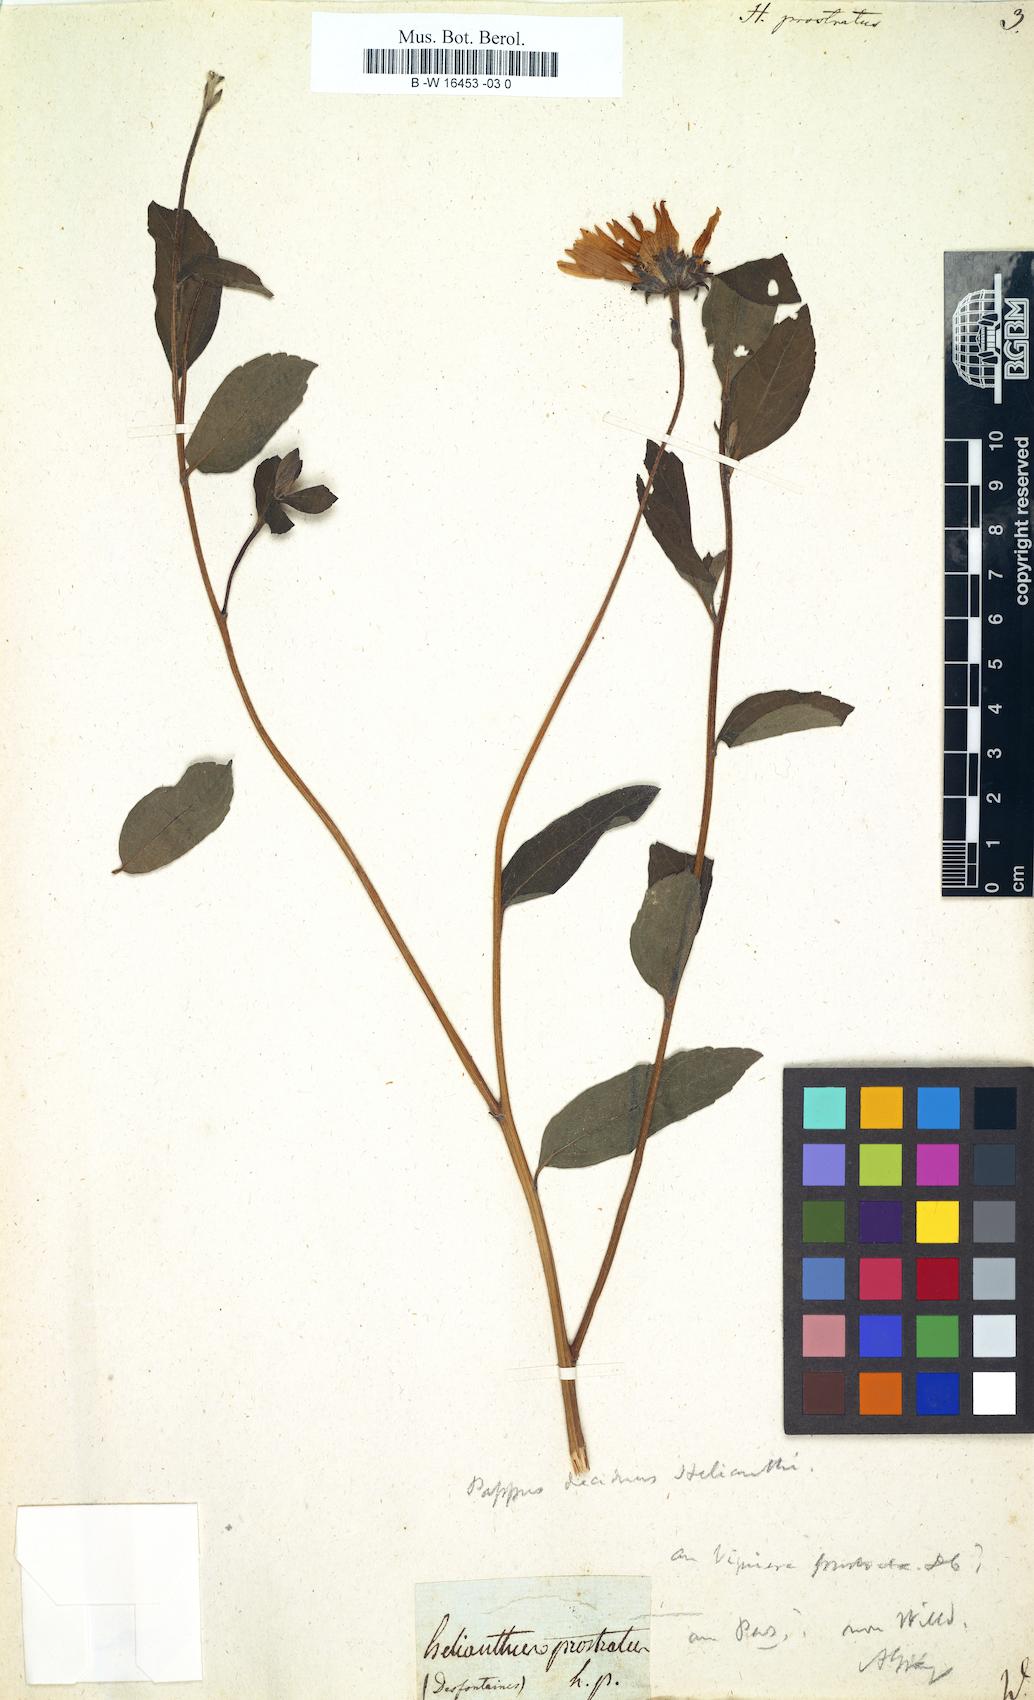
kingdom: Plantae
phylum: Tracheophyta
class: Magnoliopsida
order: Asterales
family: Asteraceae
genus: Helianthus
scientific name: Helianthus decapetalus
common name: Thin-leaved sunflower
